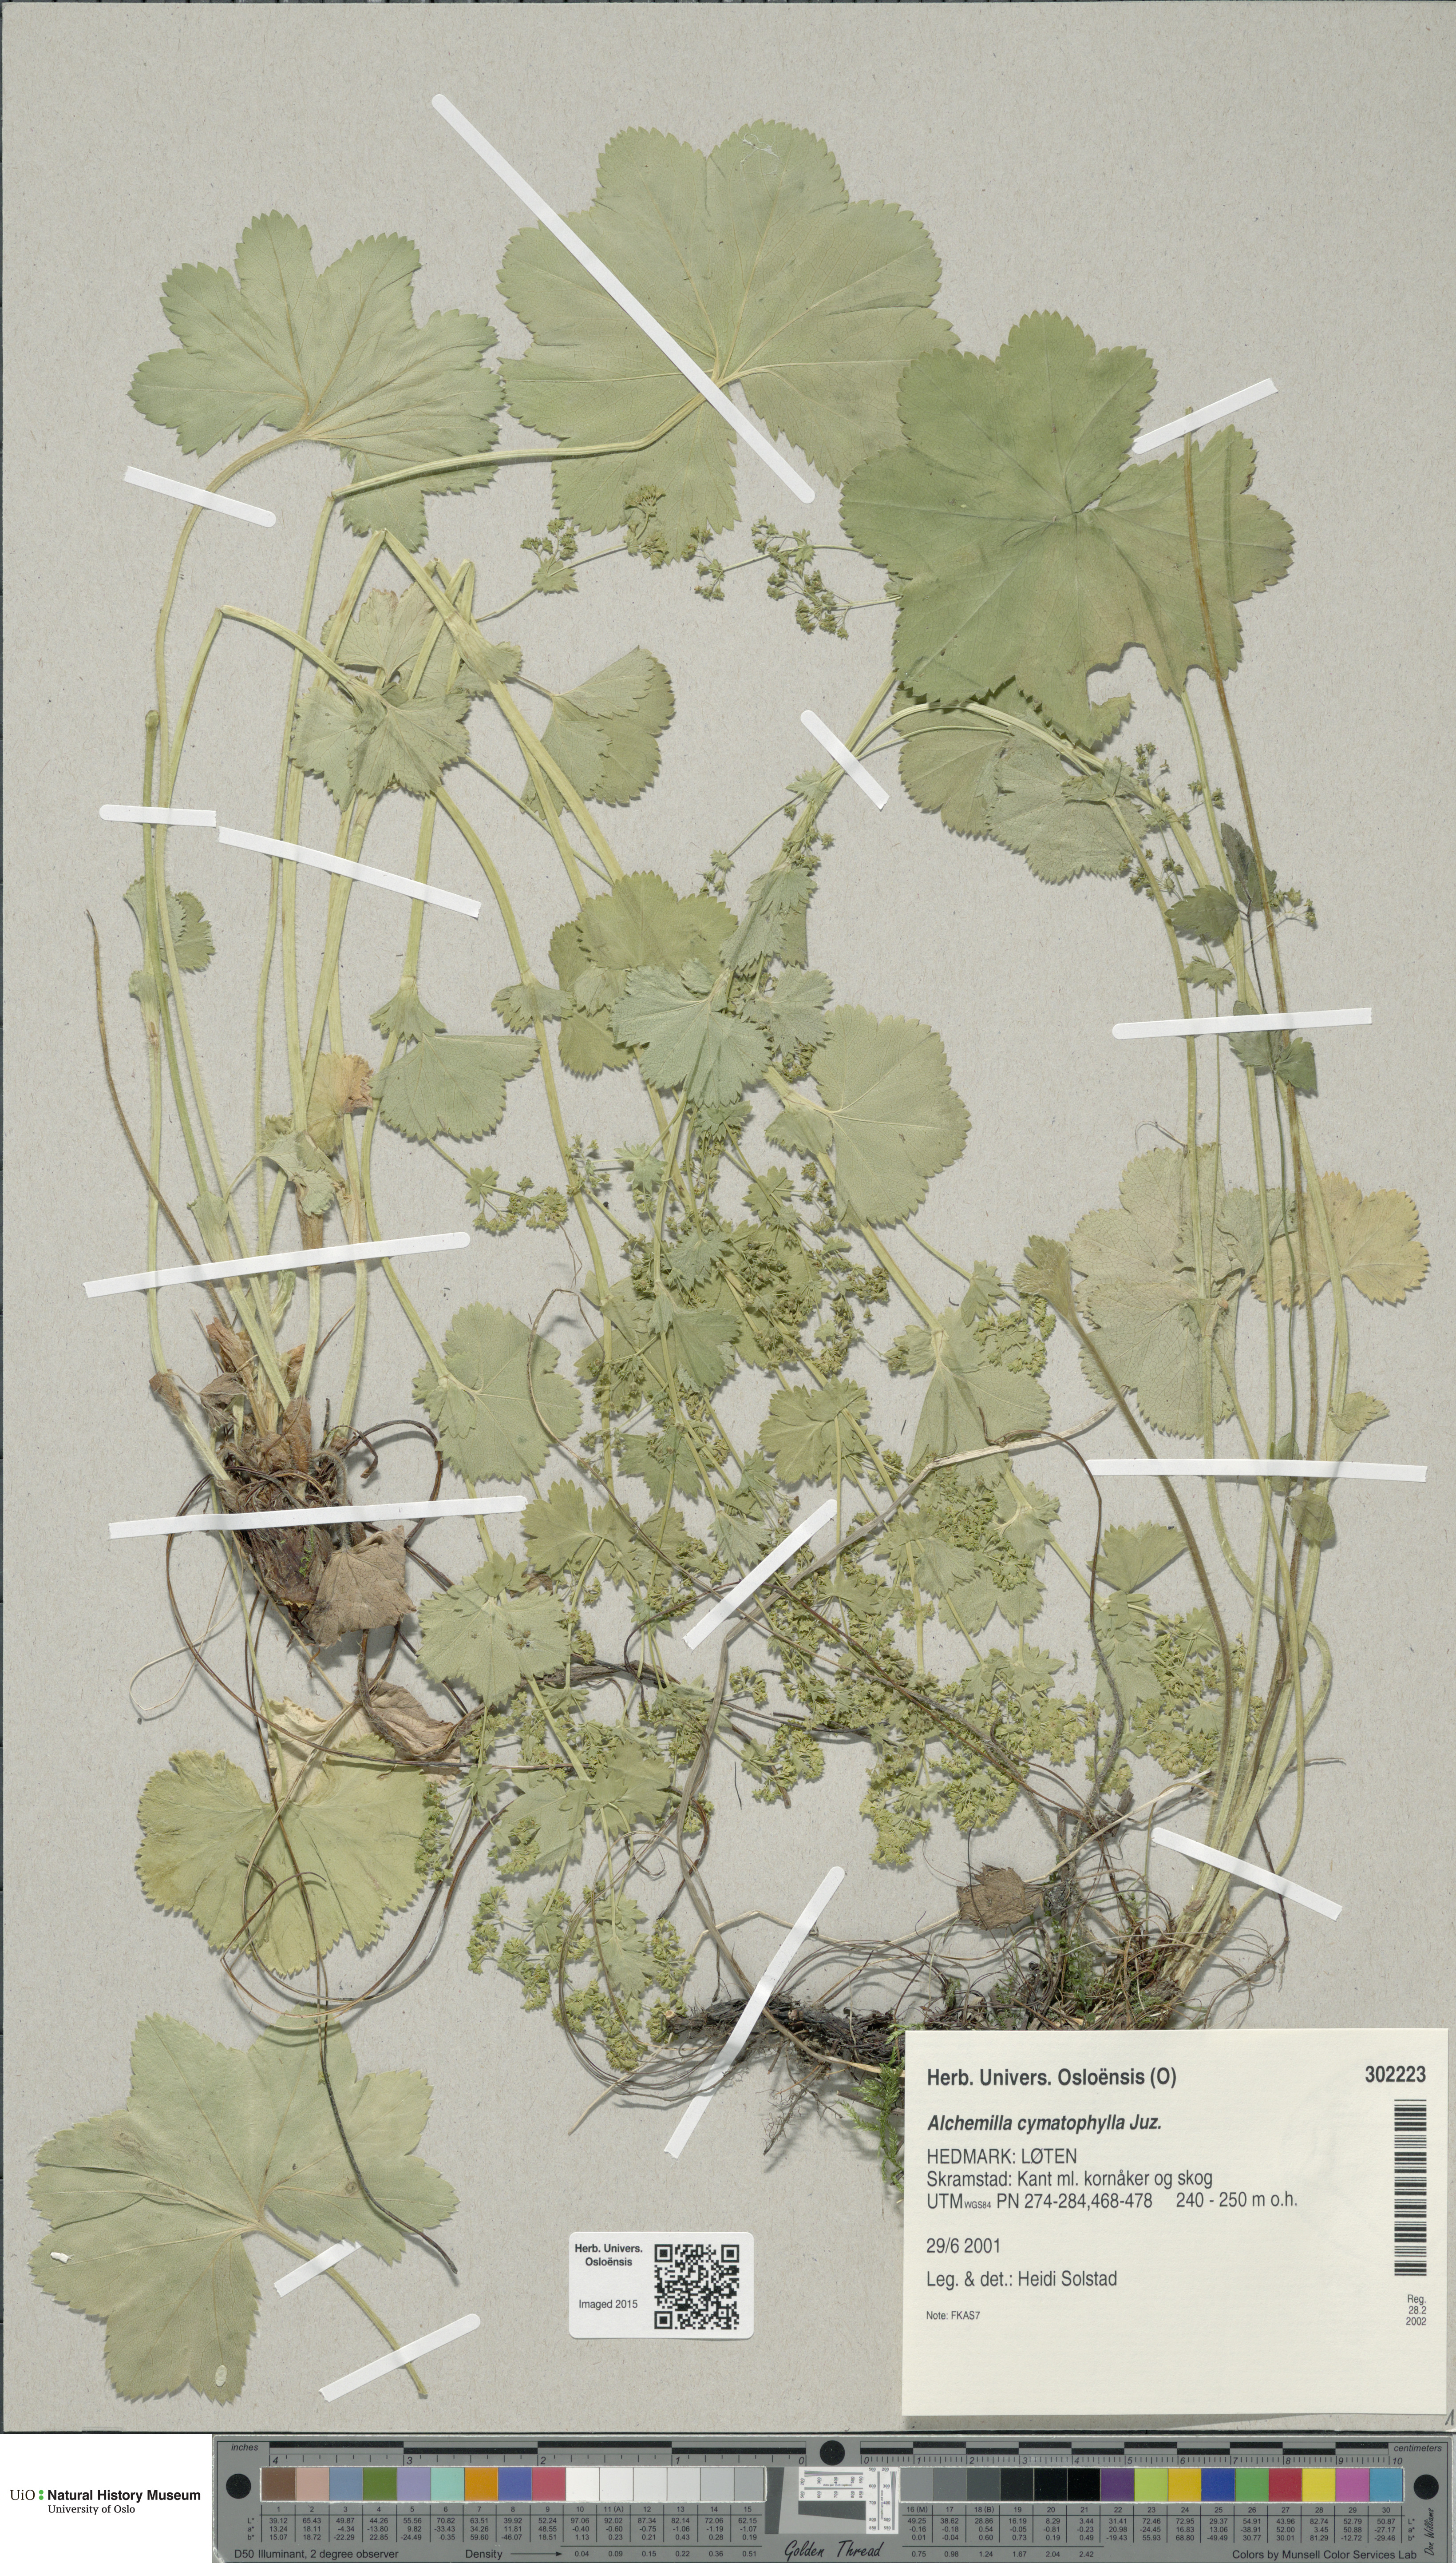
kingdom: Plantae
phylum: Tracheophyta
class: Magnoliopsida
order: Rosales
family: Rosaceae
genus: Alchemilla
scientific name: Alchemilla cymatophylla
